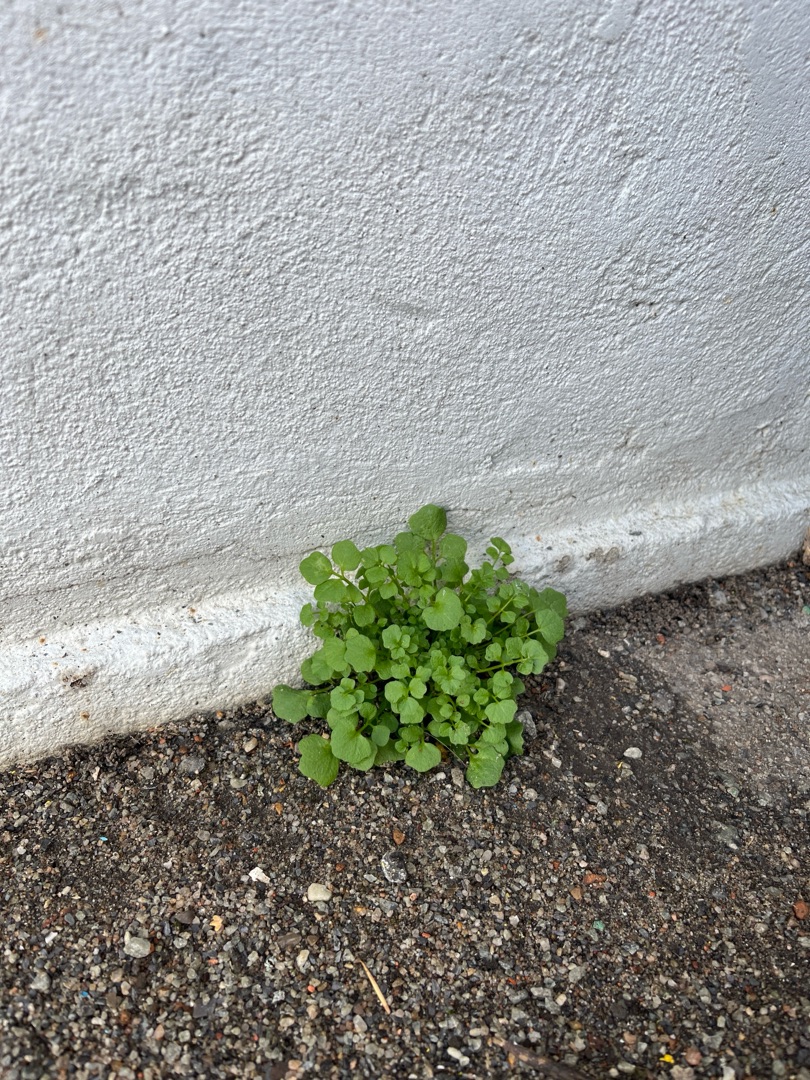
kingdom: Plantae
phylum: Tracheophyta
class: Magnoliopsida
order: Brassicales
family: Brassicaceae
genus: Cardamine
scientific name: Cardamine hirsuta
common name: Roset-springklap
